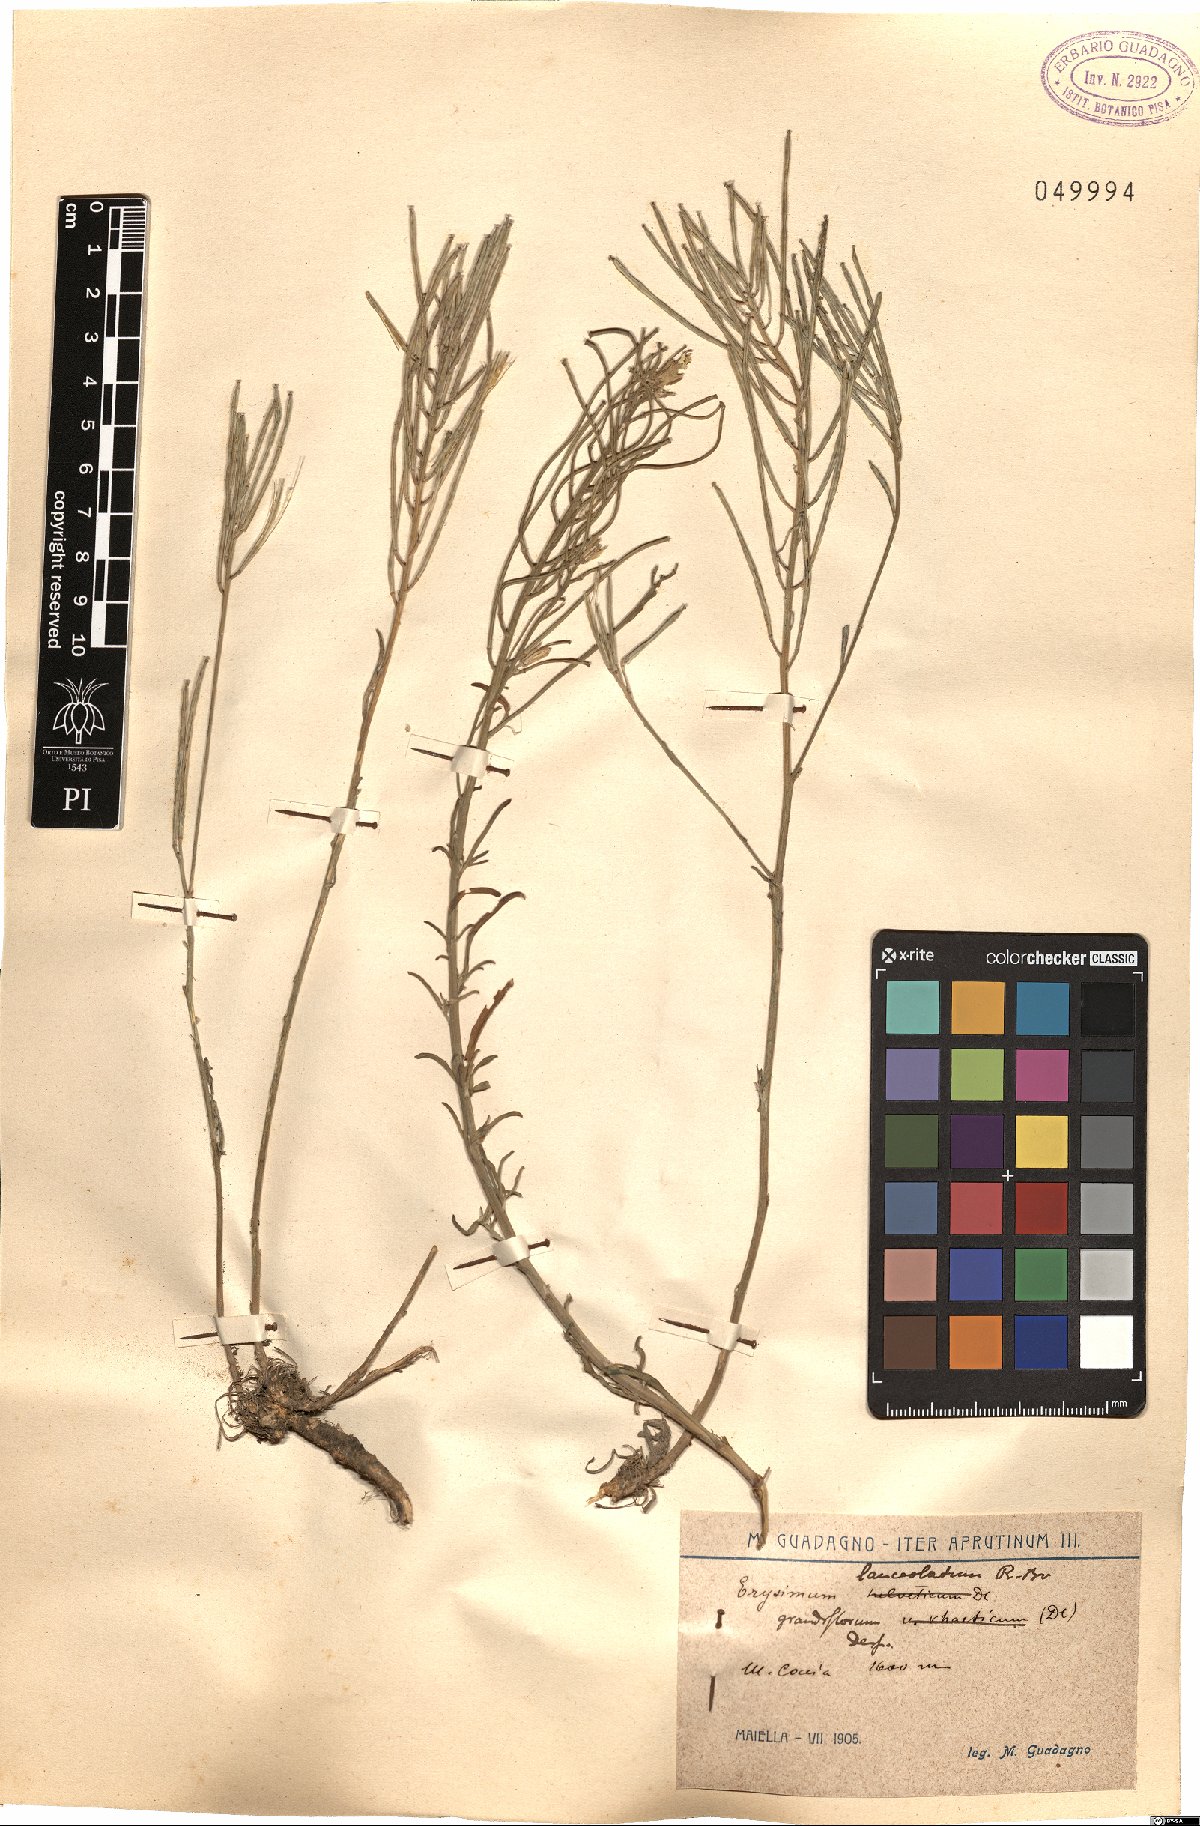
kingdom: Plantae
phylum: Tracheophyta
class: Magnoliopsida
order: Brassicales
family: Brassicaceae
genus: Erysimum
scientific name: Erysimum nevadense
